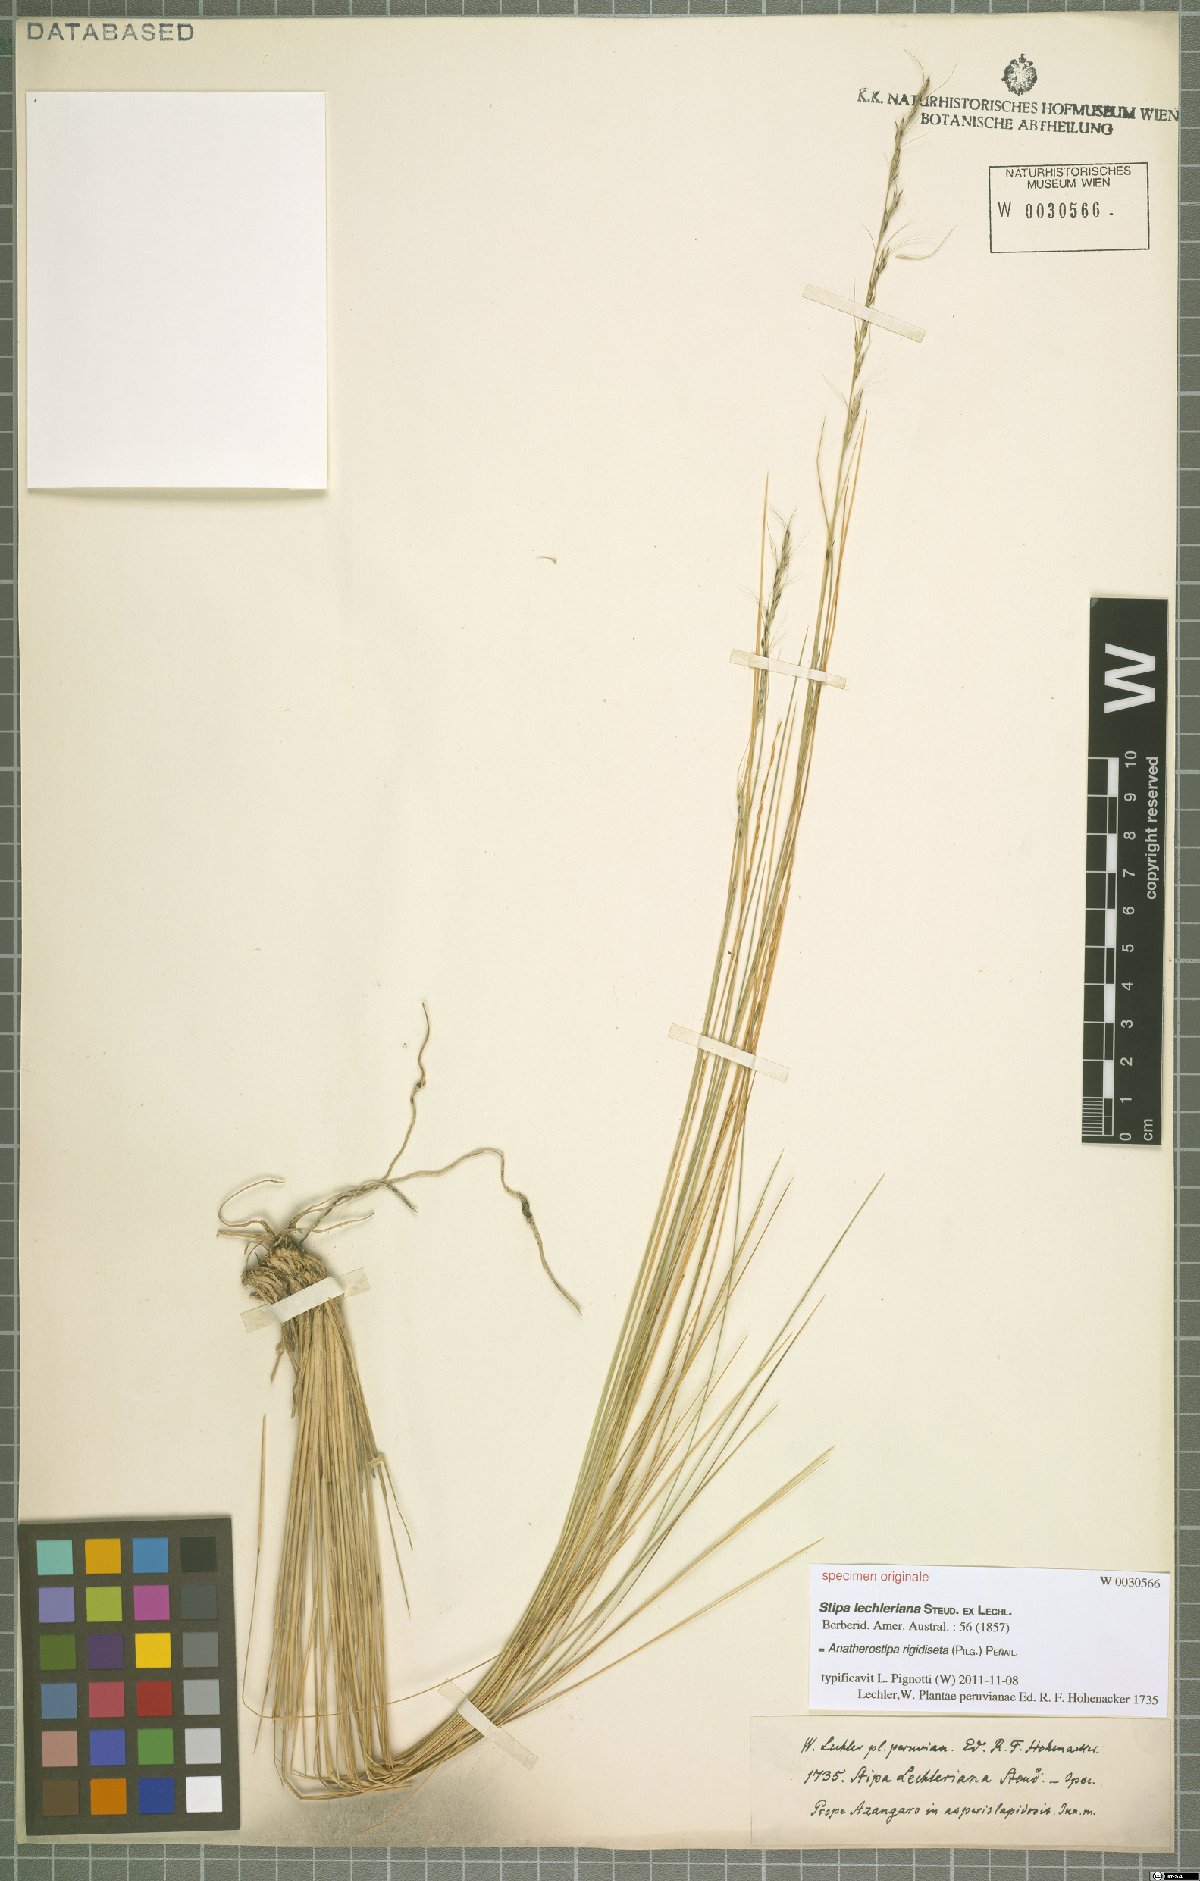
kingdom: Plantae
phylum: Tracheophyta
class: Liliopsida
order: Poales
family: Poaceae
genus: Stipa
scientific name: Stipa rigidiseta
